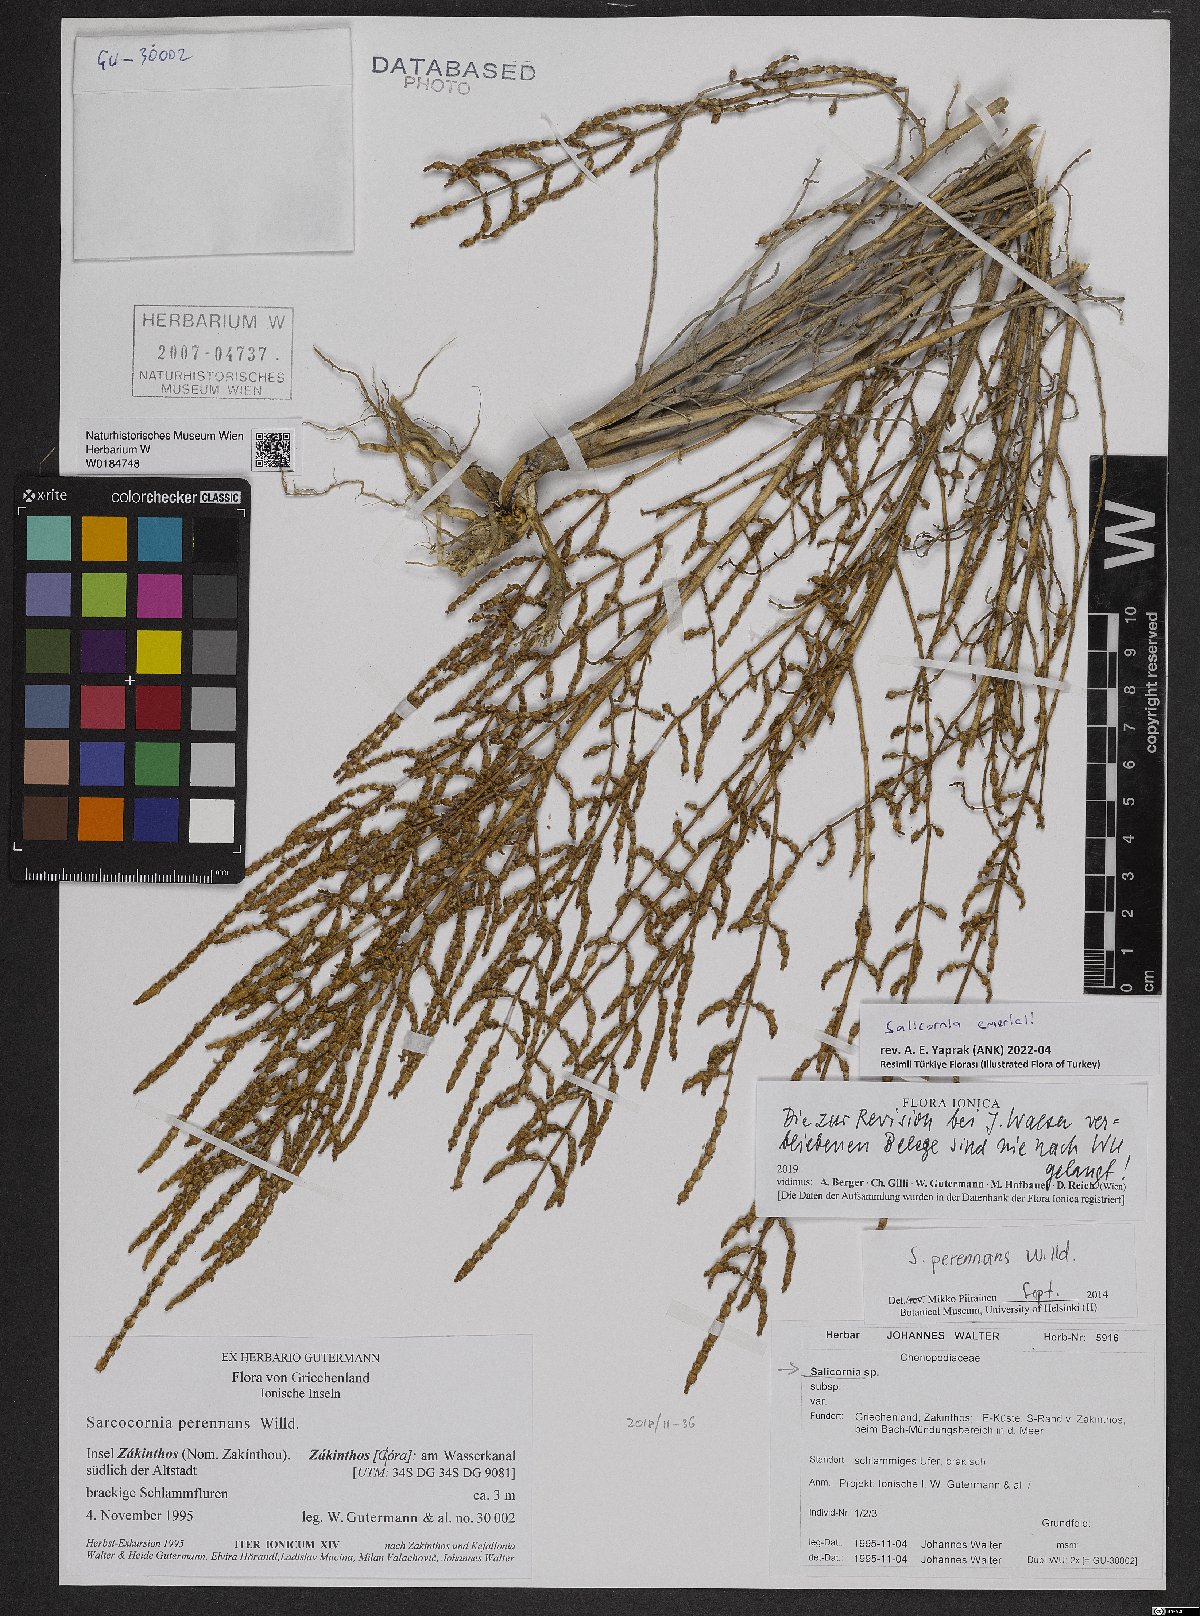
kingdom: Plantae
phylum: Tracheophyta
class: Magnoliopsida
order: Caryophyllales
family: Amaranthaceae
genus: Salicornia
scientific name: Salicornia procumbens
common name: Long-spiked glasswort
